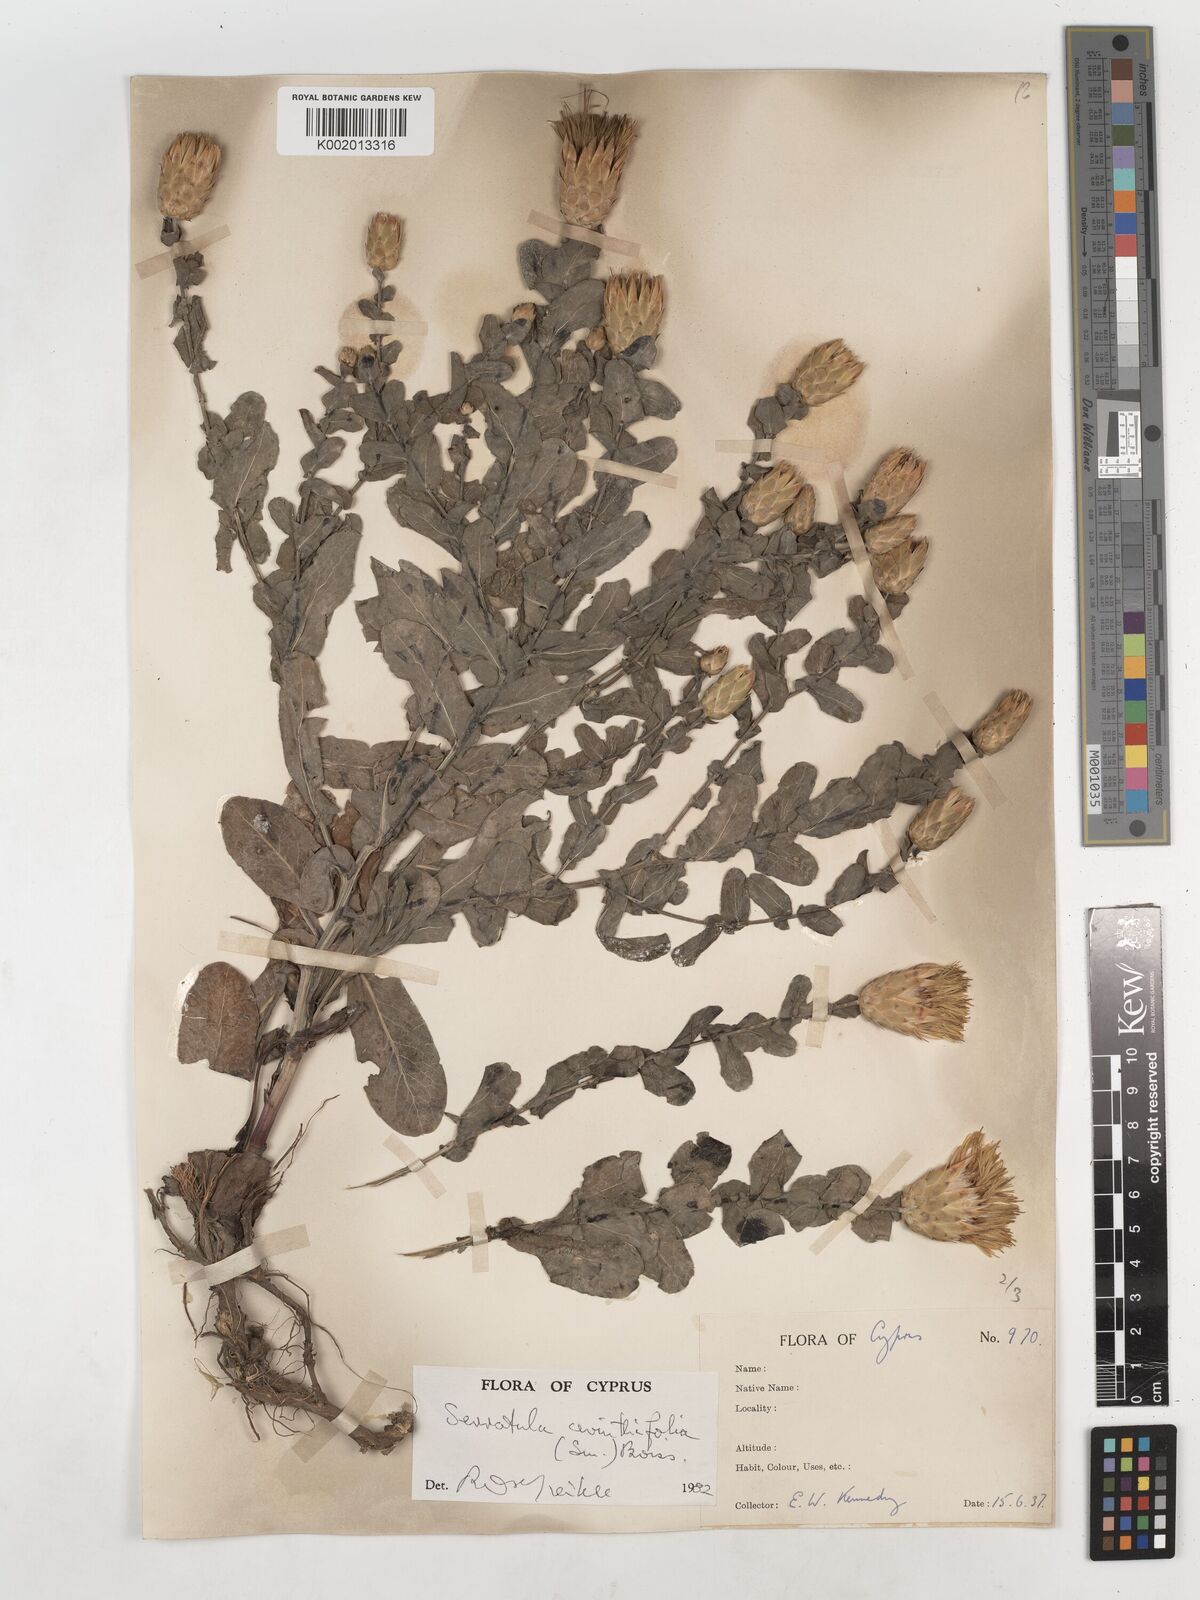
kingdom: Plantae
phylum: Tracheophyta
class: Magnoliopsida
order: Asterales
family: Asteraceae
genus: Klasea
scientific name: Klasea cerinthifolia
